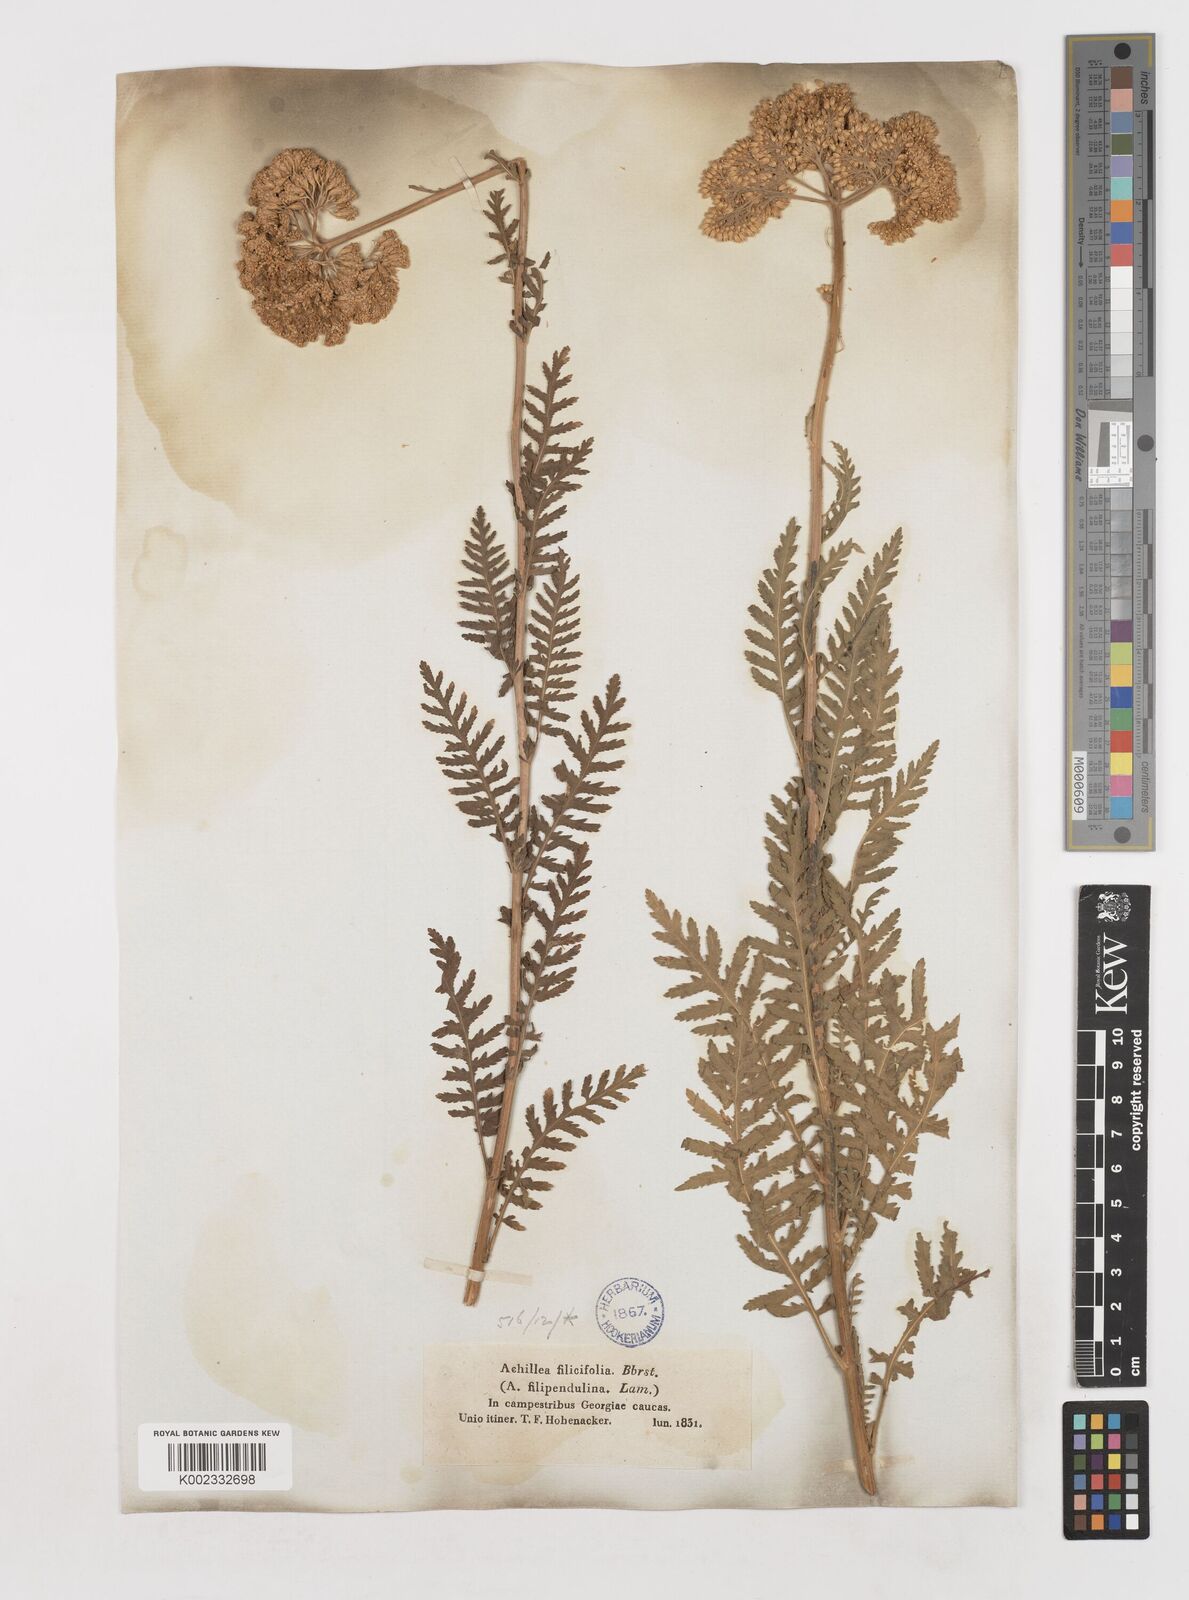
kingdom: Plantae
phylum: Tracheophyta
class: Magnoliopsida
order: Asterales
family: Asteraceae
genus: Achillea
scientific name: Achillea filipendulina
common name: Fernleaf yarrow
